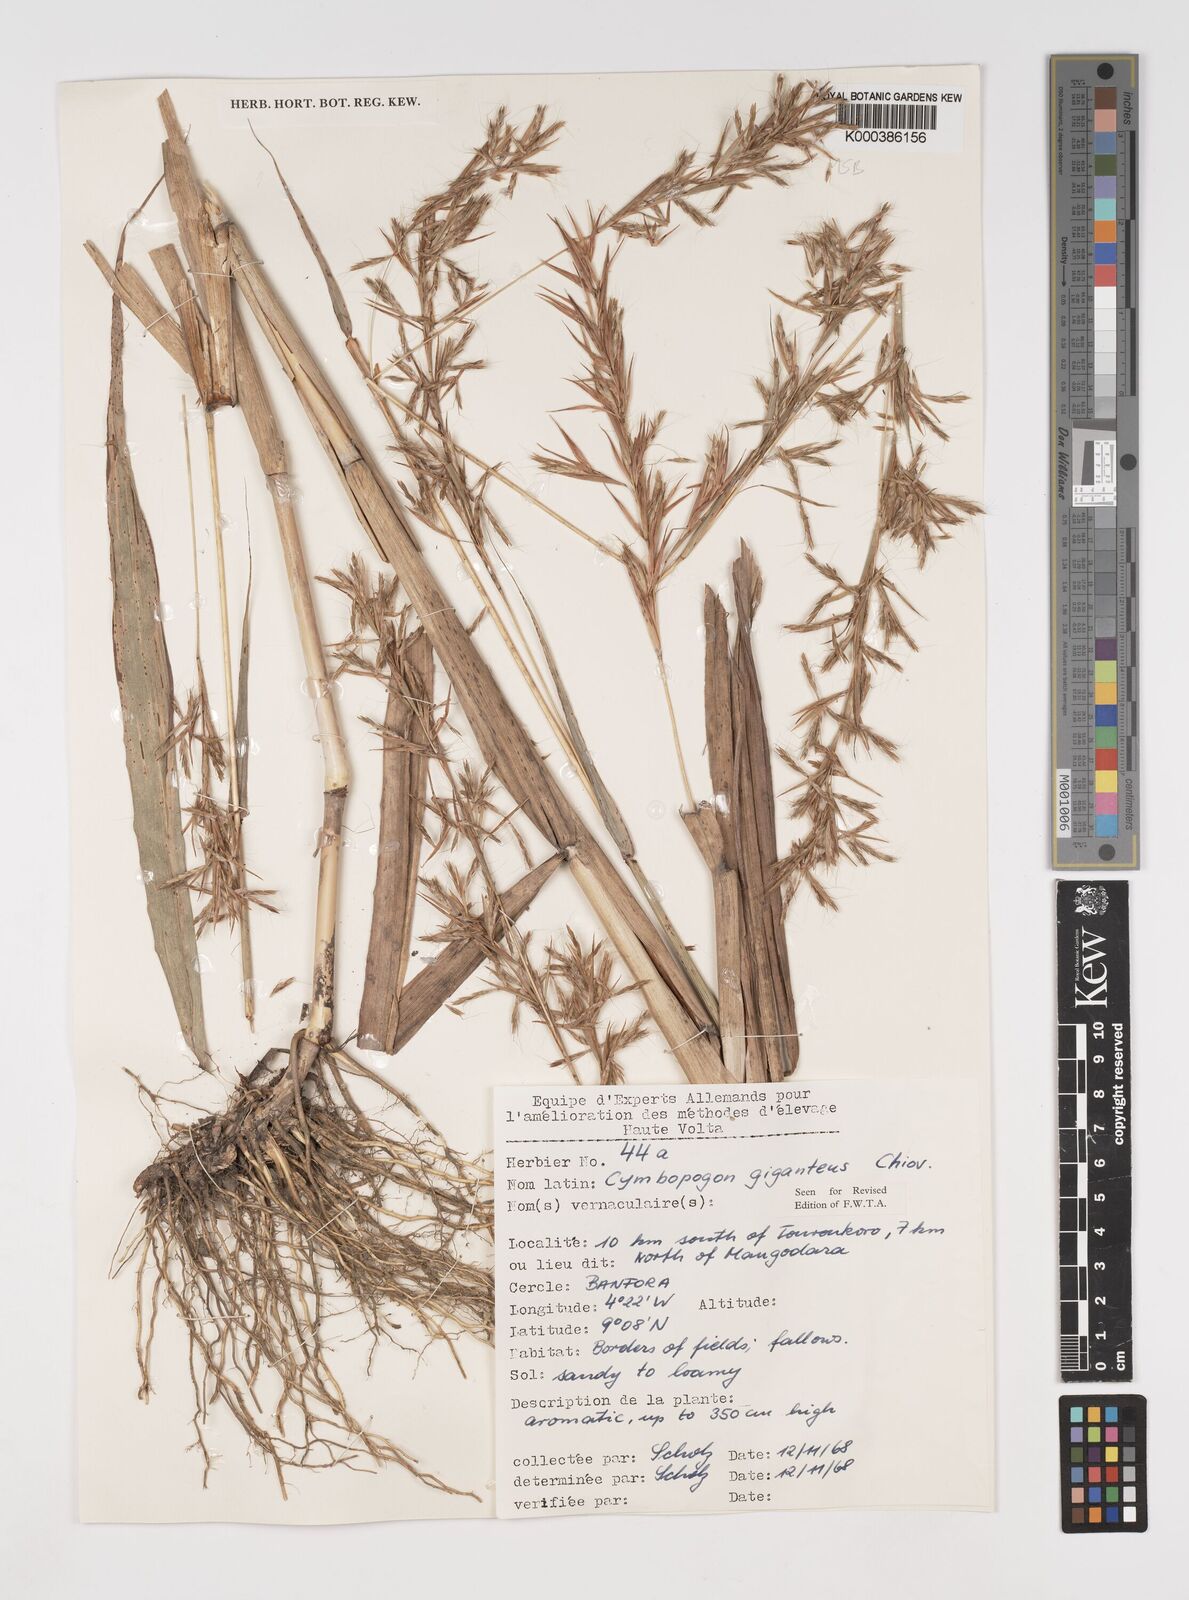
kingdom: Plantae
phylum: Tracheophyta
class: Liliopsida
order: Poales
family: Poaceae
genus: Cymbopogon
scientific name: Cymbopogon giganteus
